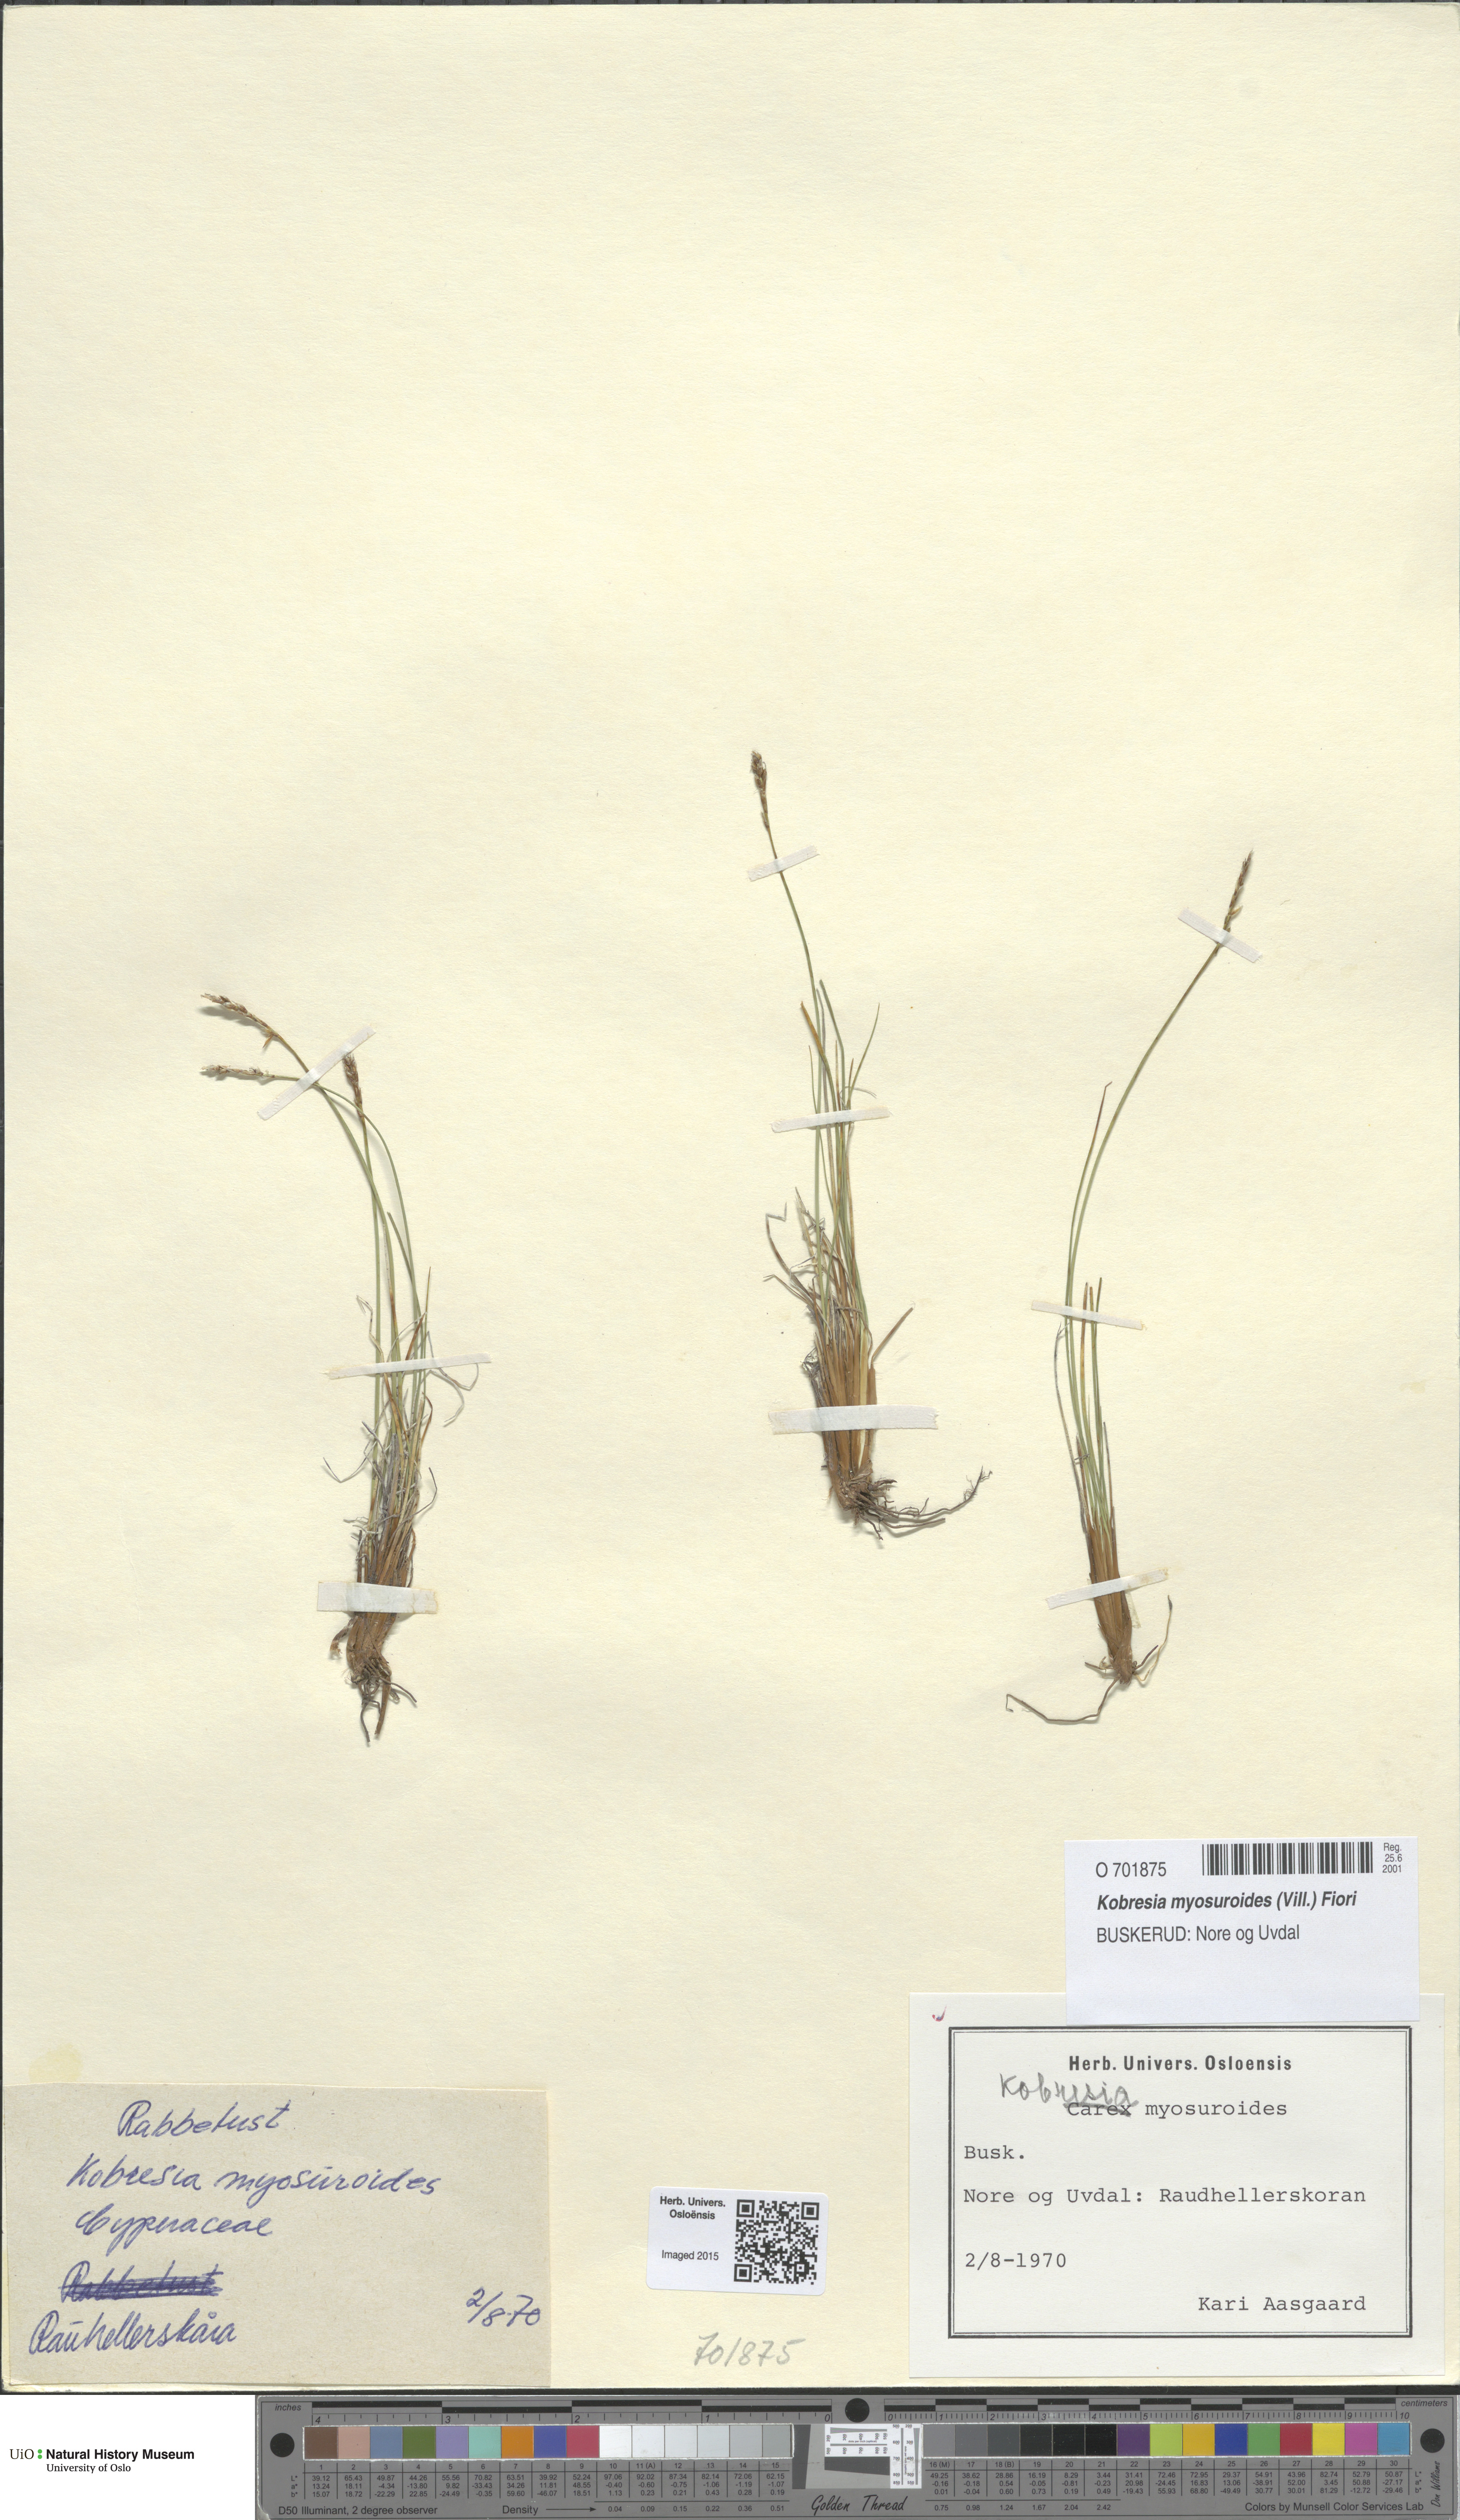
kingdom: Plantae
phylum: Tracheophyta
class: Liliopsida
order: Poales
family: Cyperaceae
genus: Carex
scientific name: Carex myosuroides
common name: Bellard's bog sedge
